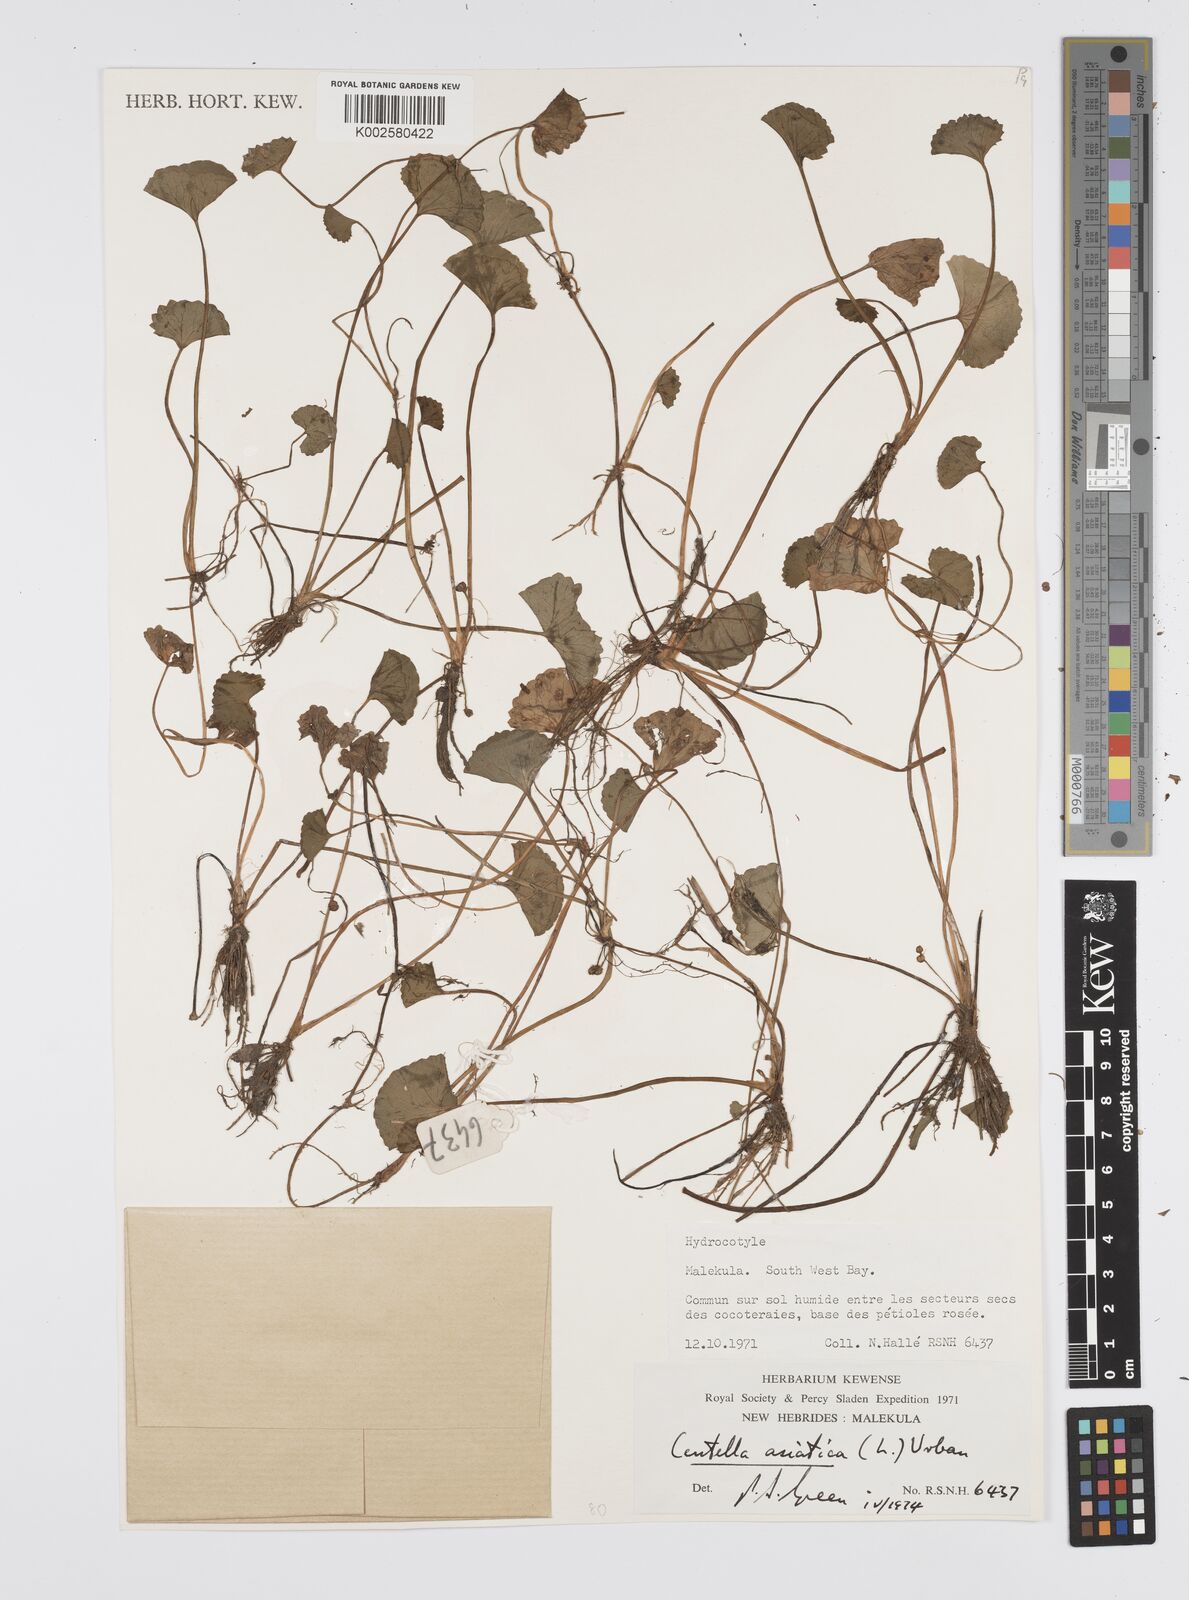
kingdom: Plantae
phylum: Tracheophyta
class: Magnoliopsida
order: Apiales
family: Apiaceae
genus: Centella
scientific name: Centella asiatica
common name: Spadeleaf
